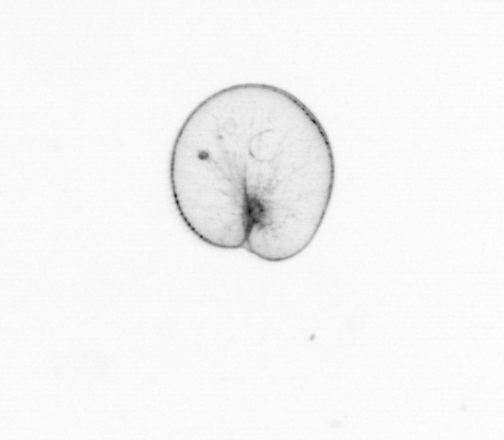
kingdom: Chromista
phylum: Myzozoa
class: Dinophyceae
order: Noctilucales
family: Noctilucaceae
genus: Noctiluca
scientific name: Noctiluca scintillans
